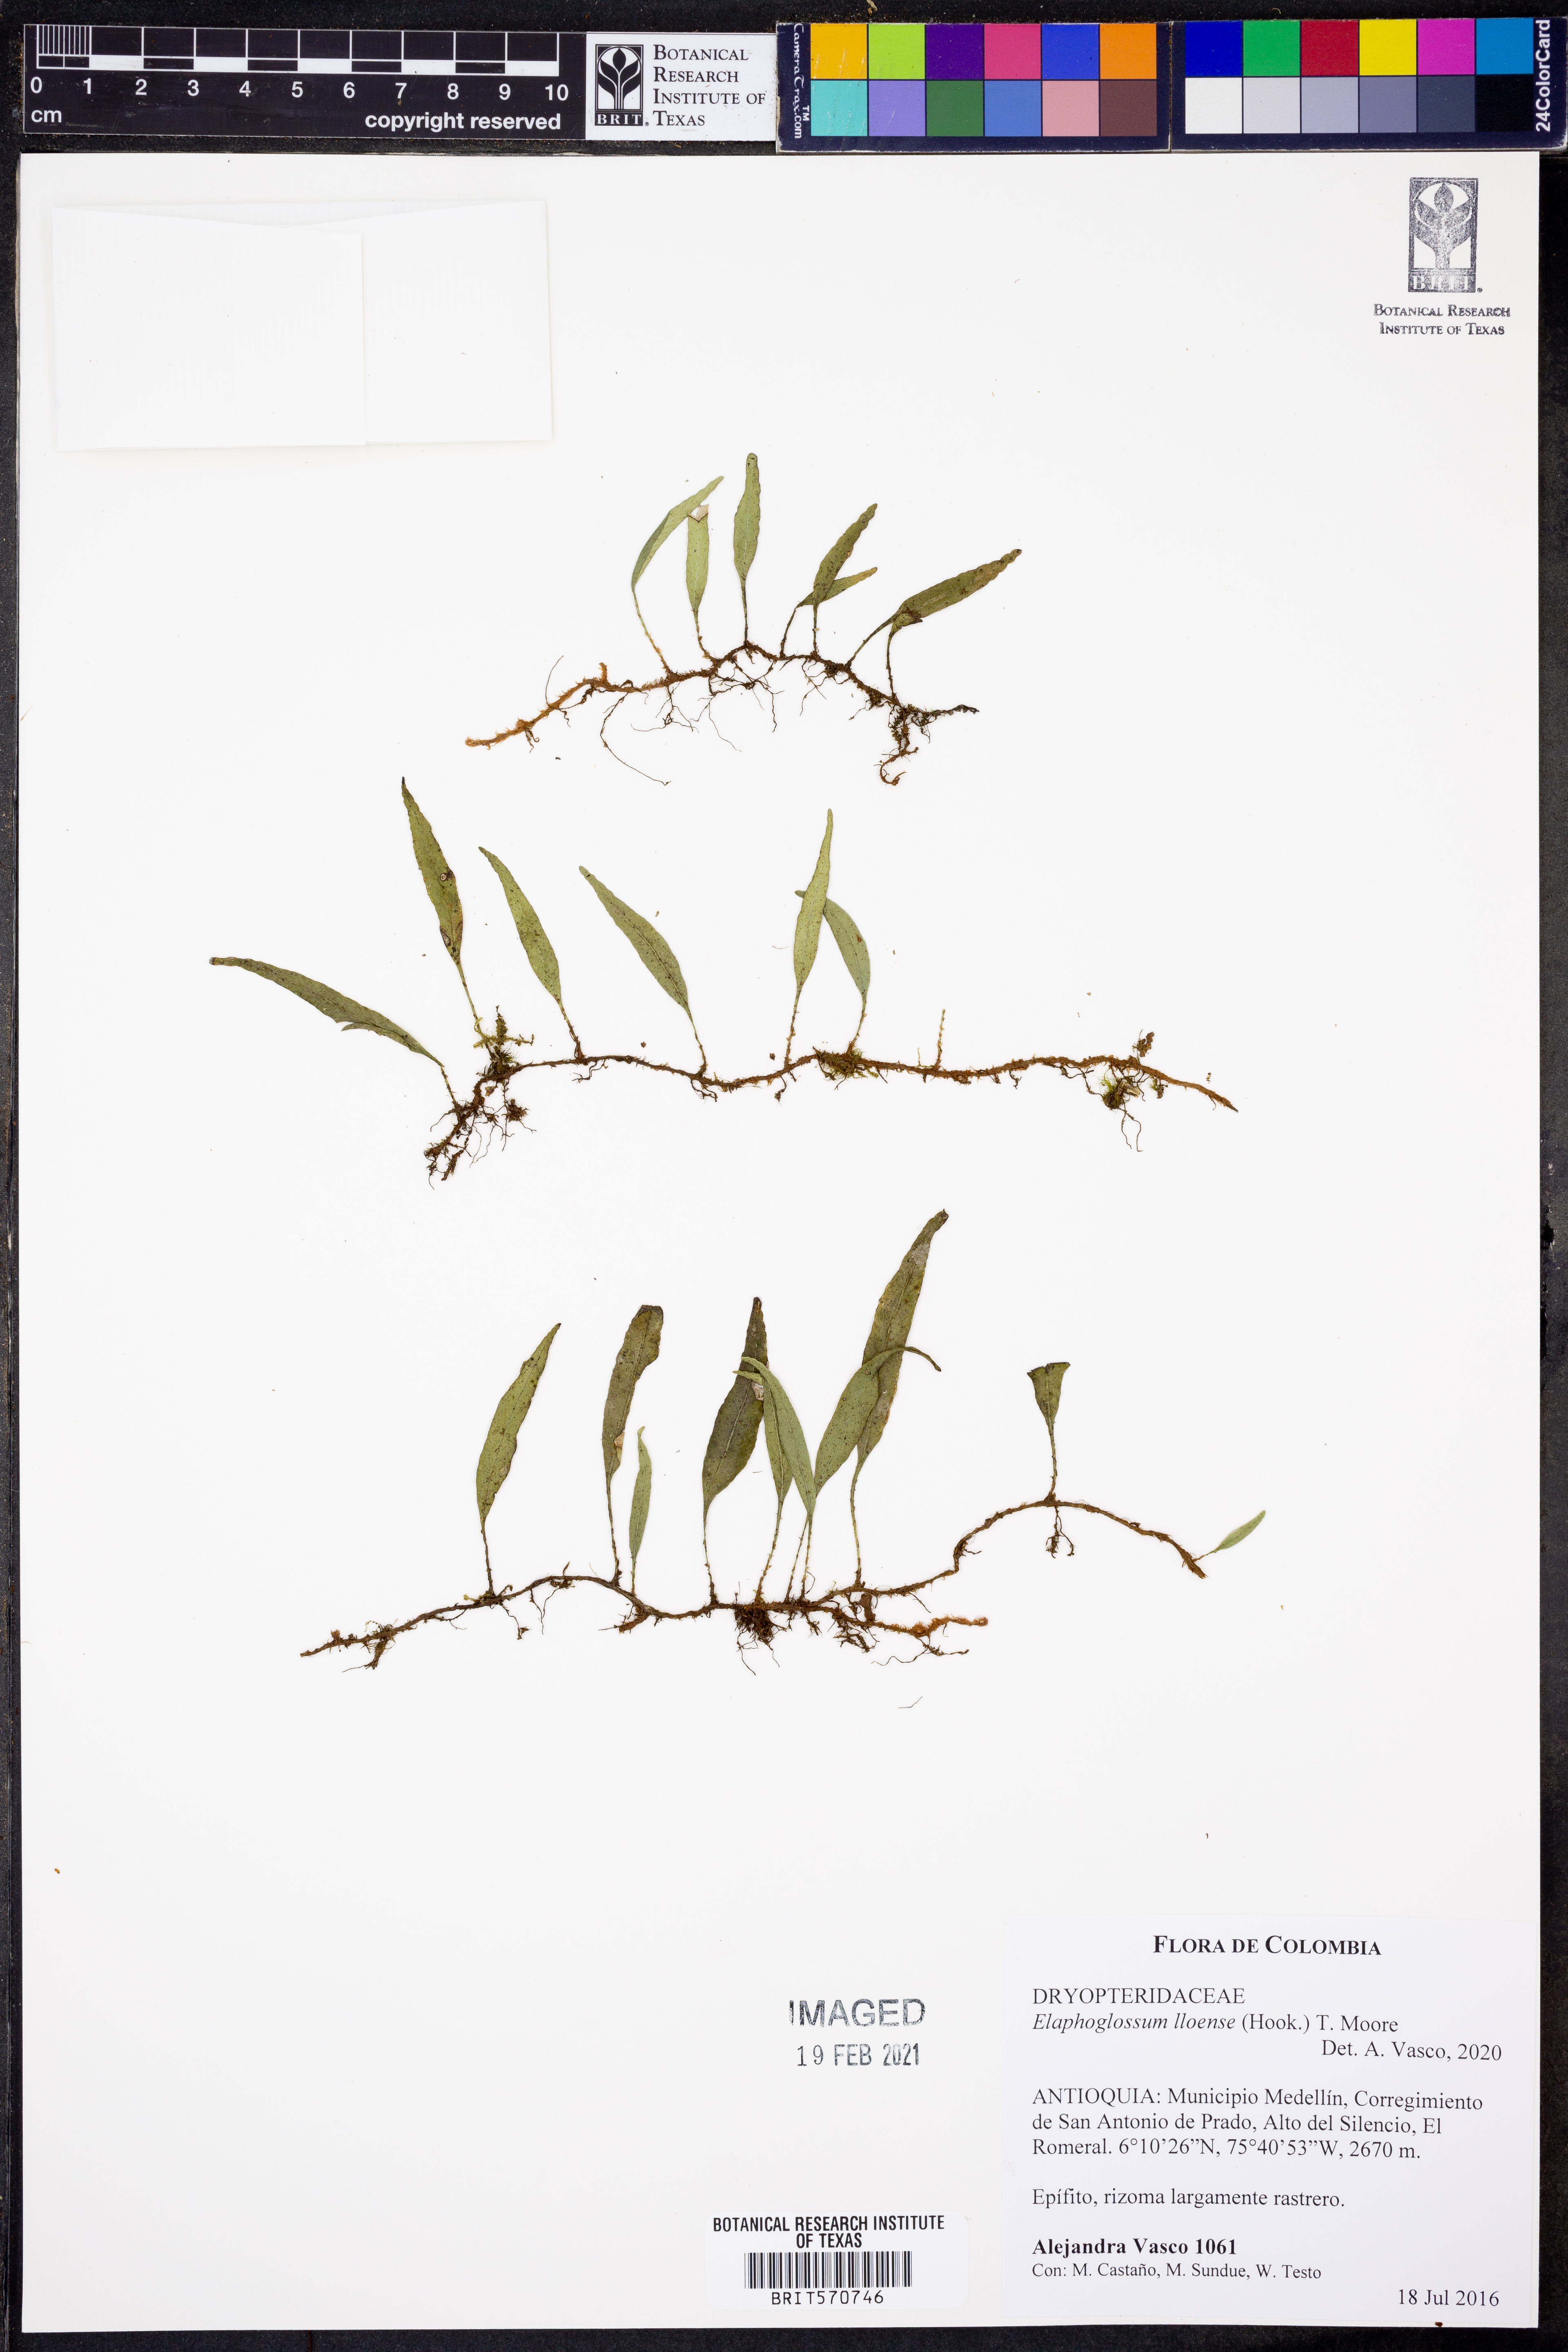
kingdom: Plantae
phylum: Tracheophyta
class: Polypodiopsida
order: Polypodiales
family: Dryopteridaceae
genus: Elaphoglossum
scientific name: Elaphoglossum lloense
